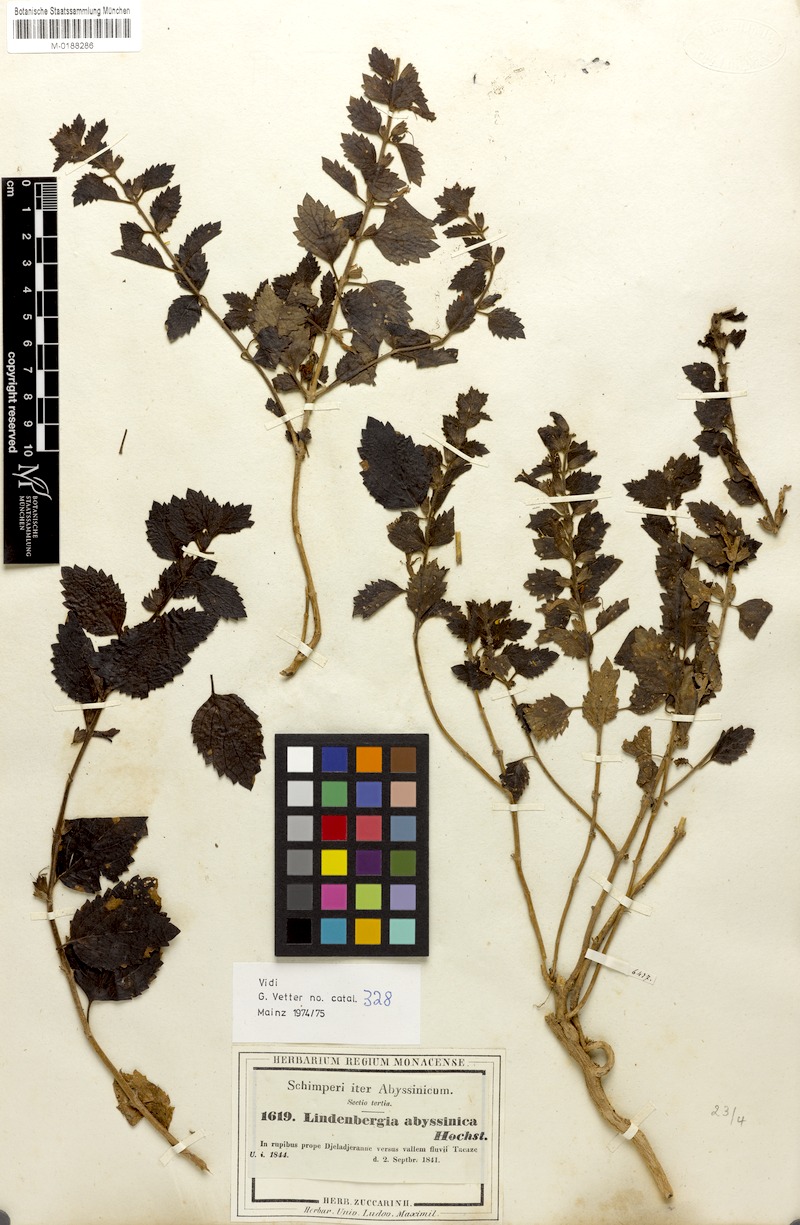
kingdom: Plantae
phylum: Tracheophyta
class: Magnoliopsida
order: Lamiales
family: Orobanchaceae
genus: Lindenbergia
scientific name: Lindenbergia indica
